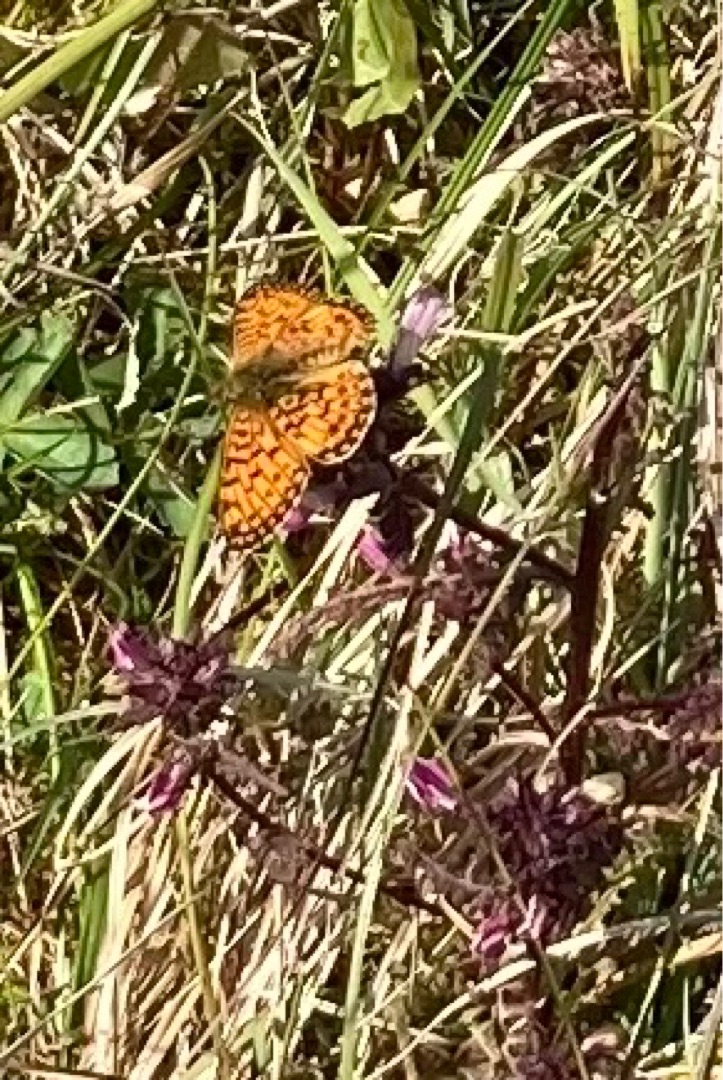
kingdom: Animalia
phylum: Arthropoda
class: Insecta
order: Lepidoptera
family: Nymphalidae
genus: Melitaea
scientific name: Melitaea cinxia
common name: Okkergul pletvinge
